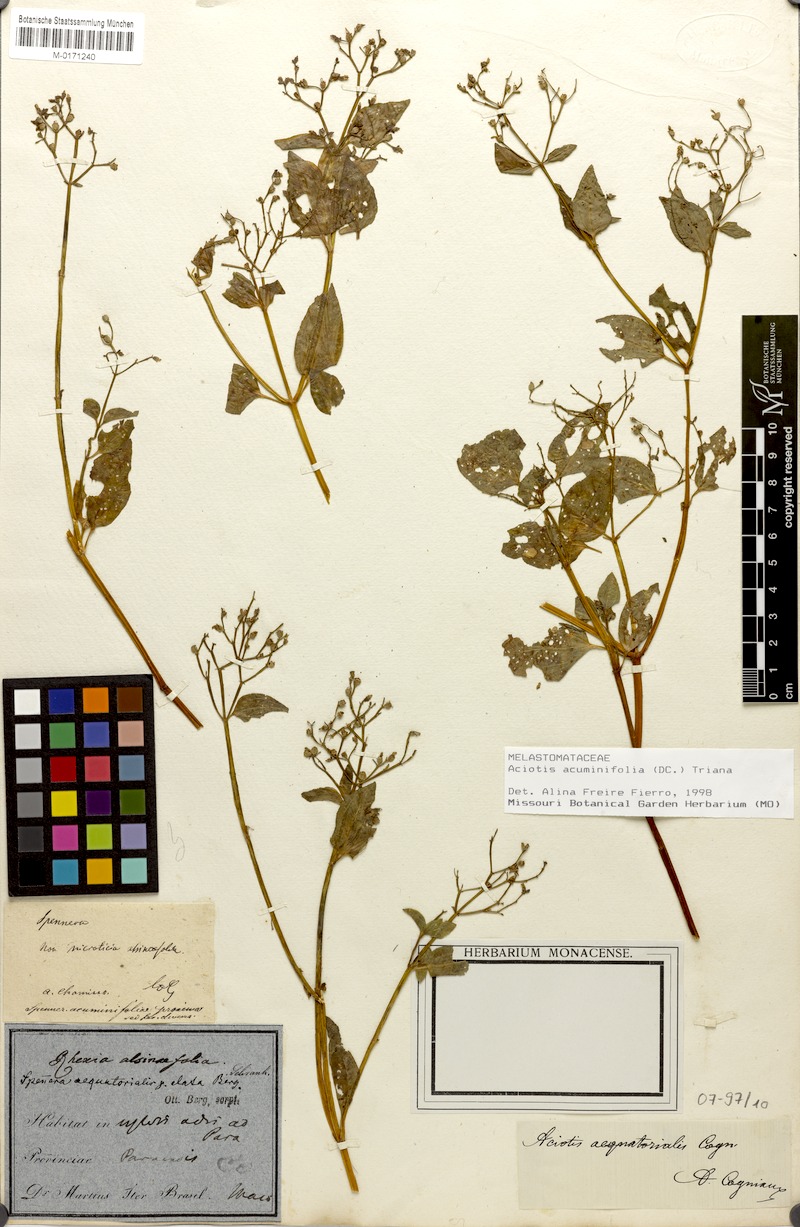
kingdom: Plantae
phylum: Tracheophyta
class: Magnoliopsida
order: Myrtales
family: Melastomataceae
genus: Aciotis
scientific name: Aciotis acuminifolia
